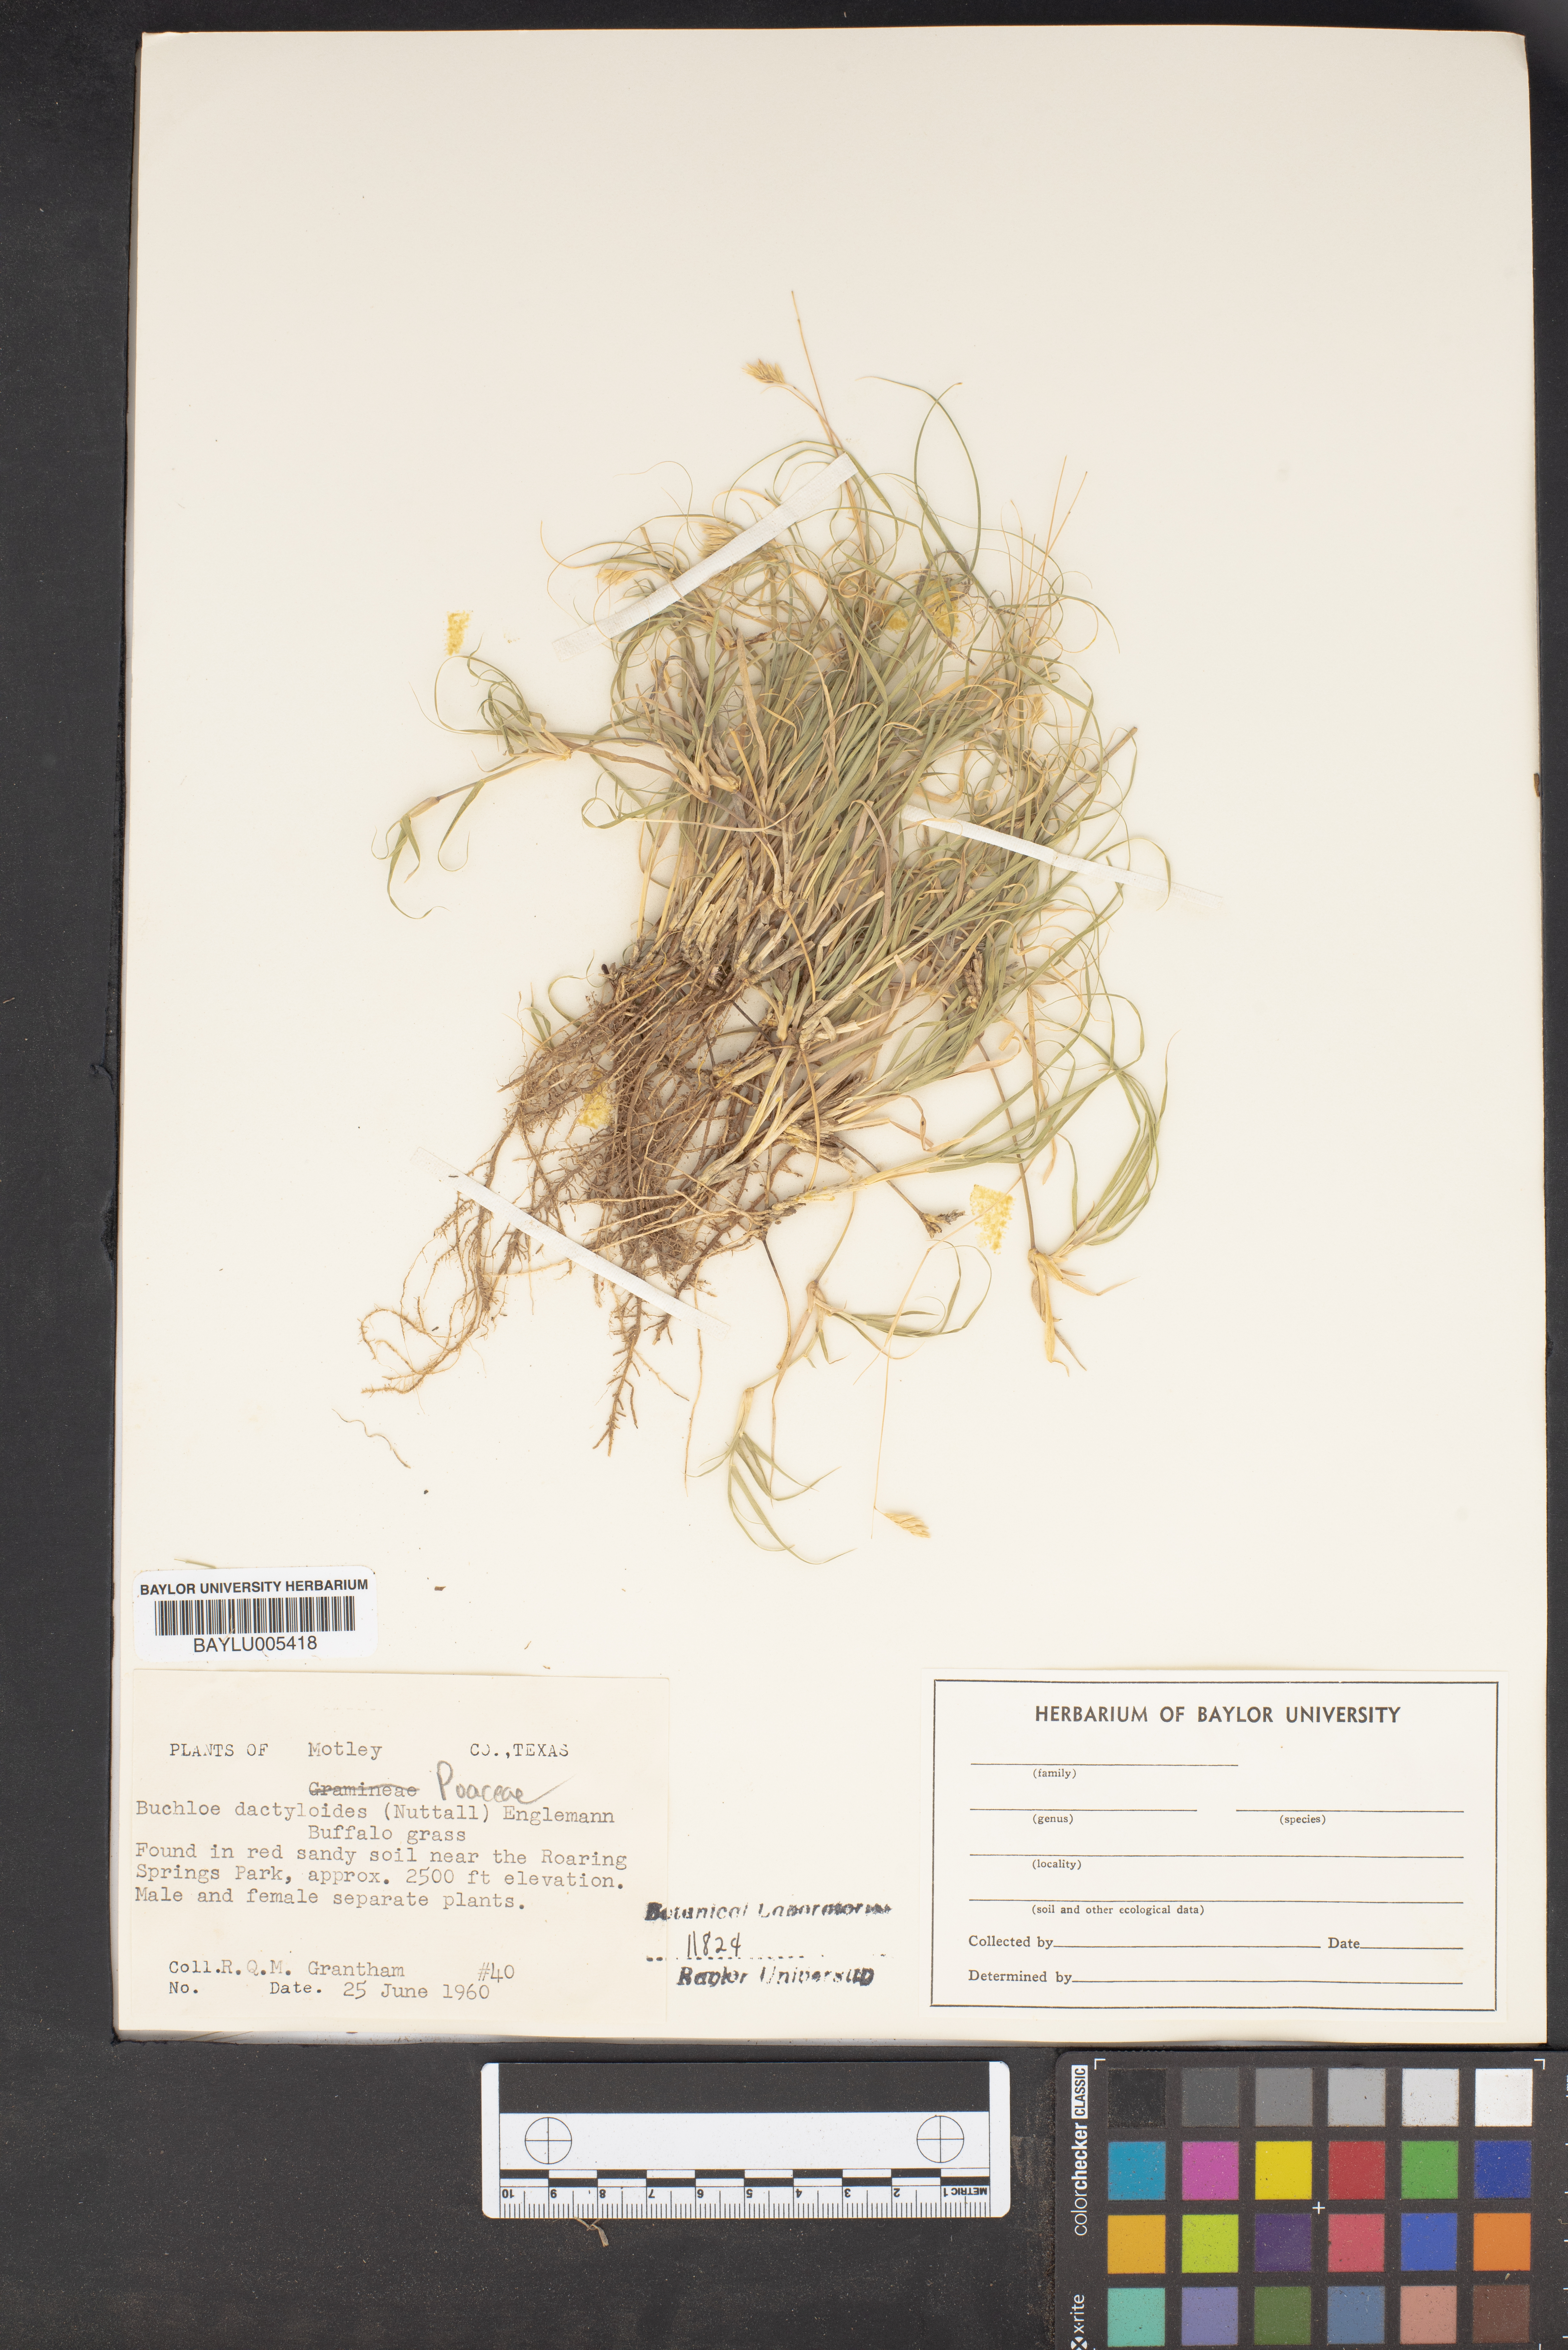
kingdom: Plantae
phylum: Tracheophyta
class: Liliopsida
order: Poales
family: Poaceae
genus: Bouteloua
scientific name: Bouteloua dactyloides
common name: Buffalo grass
